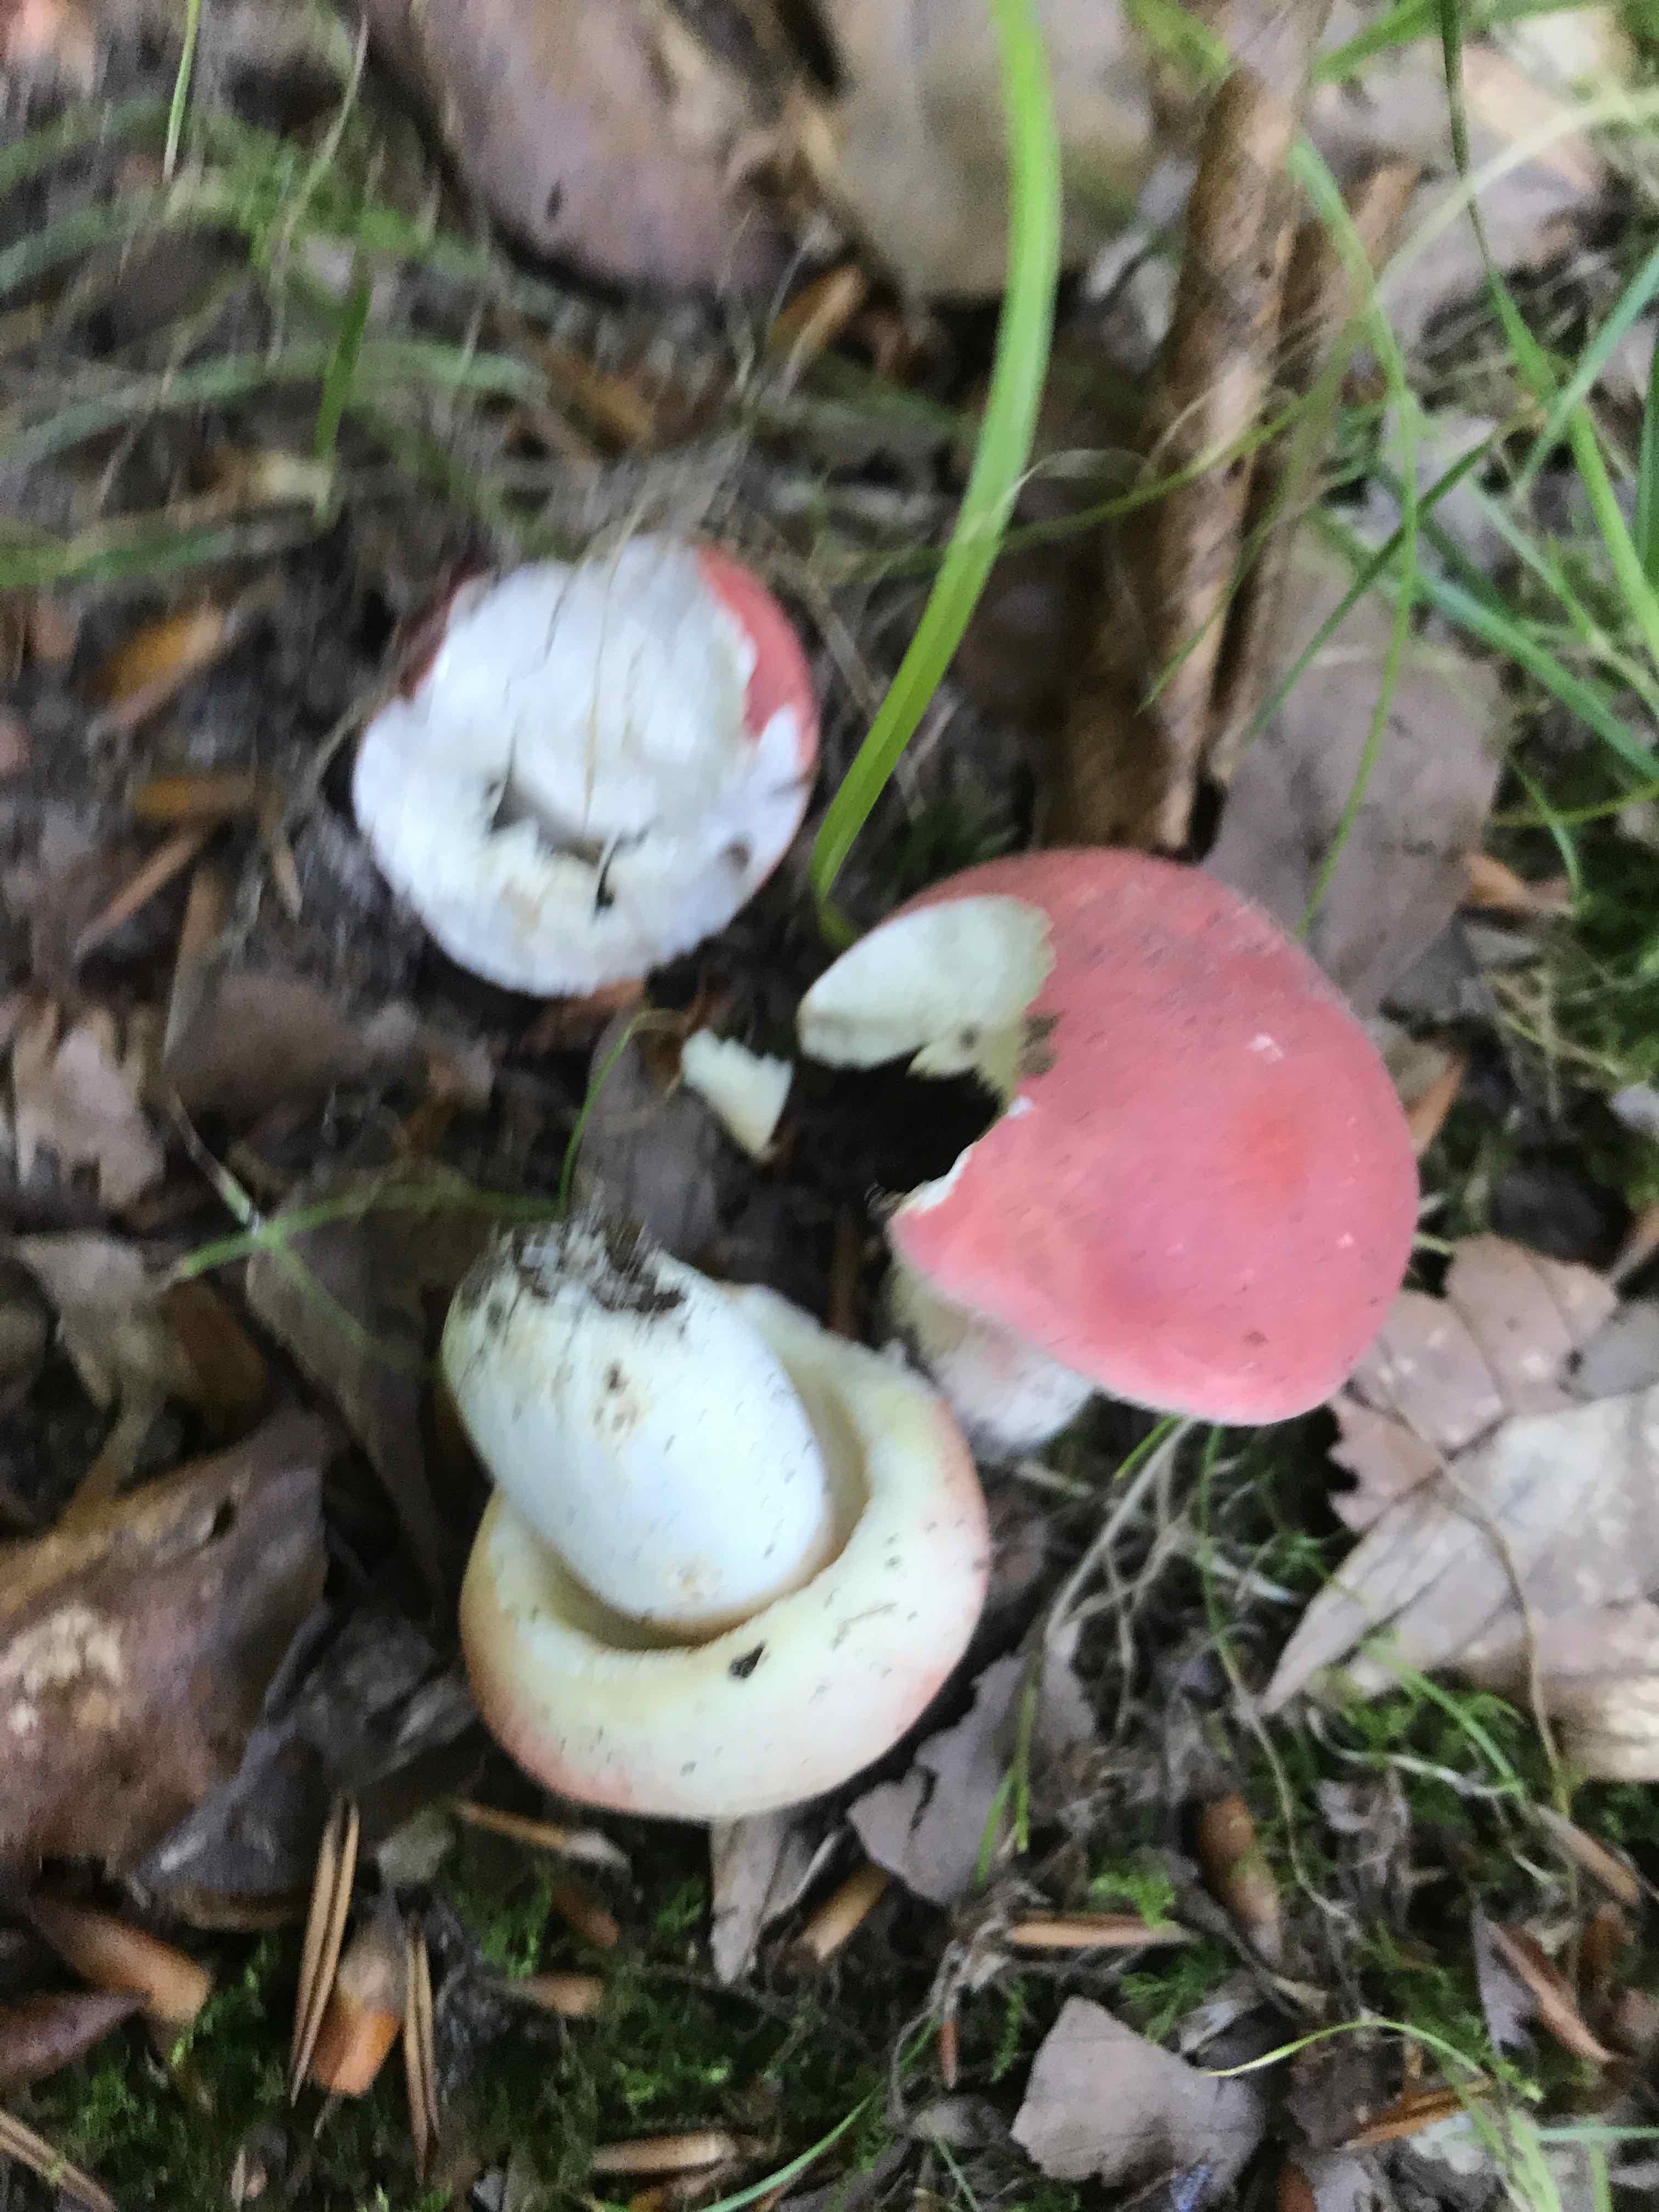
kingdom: Fungi
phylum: Basidiomycota
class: Agaricomycetes
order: Russulales
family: Russulaceae
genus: Russula
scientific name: Russula rosea
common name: fastkødet skørhat
